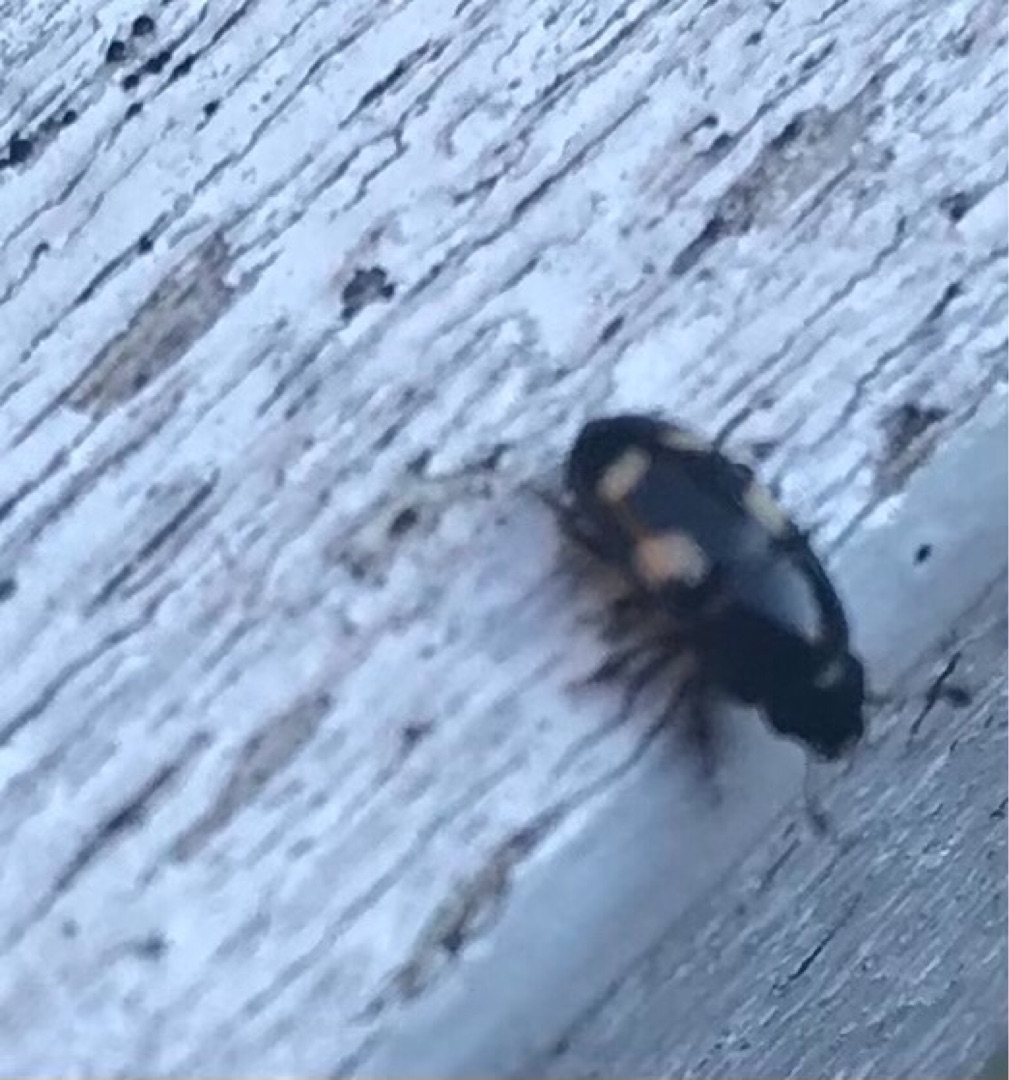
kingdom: Animalia
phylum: Arthropoda
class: Insecta
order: Coleoptera
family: Nitidulidae
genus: Glischrochilus
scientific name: Glischrochilus quadrisignatus
